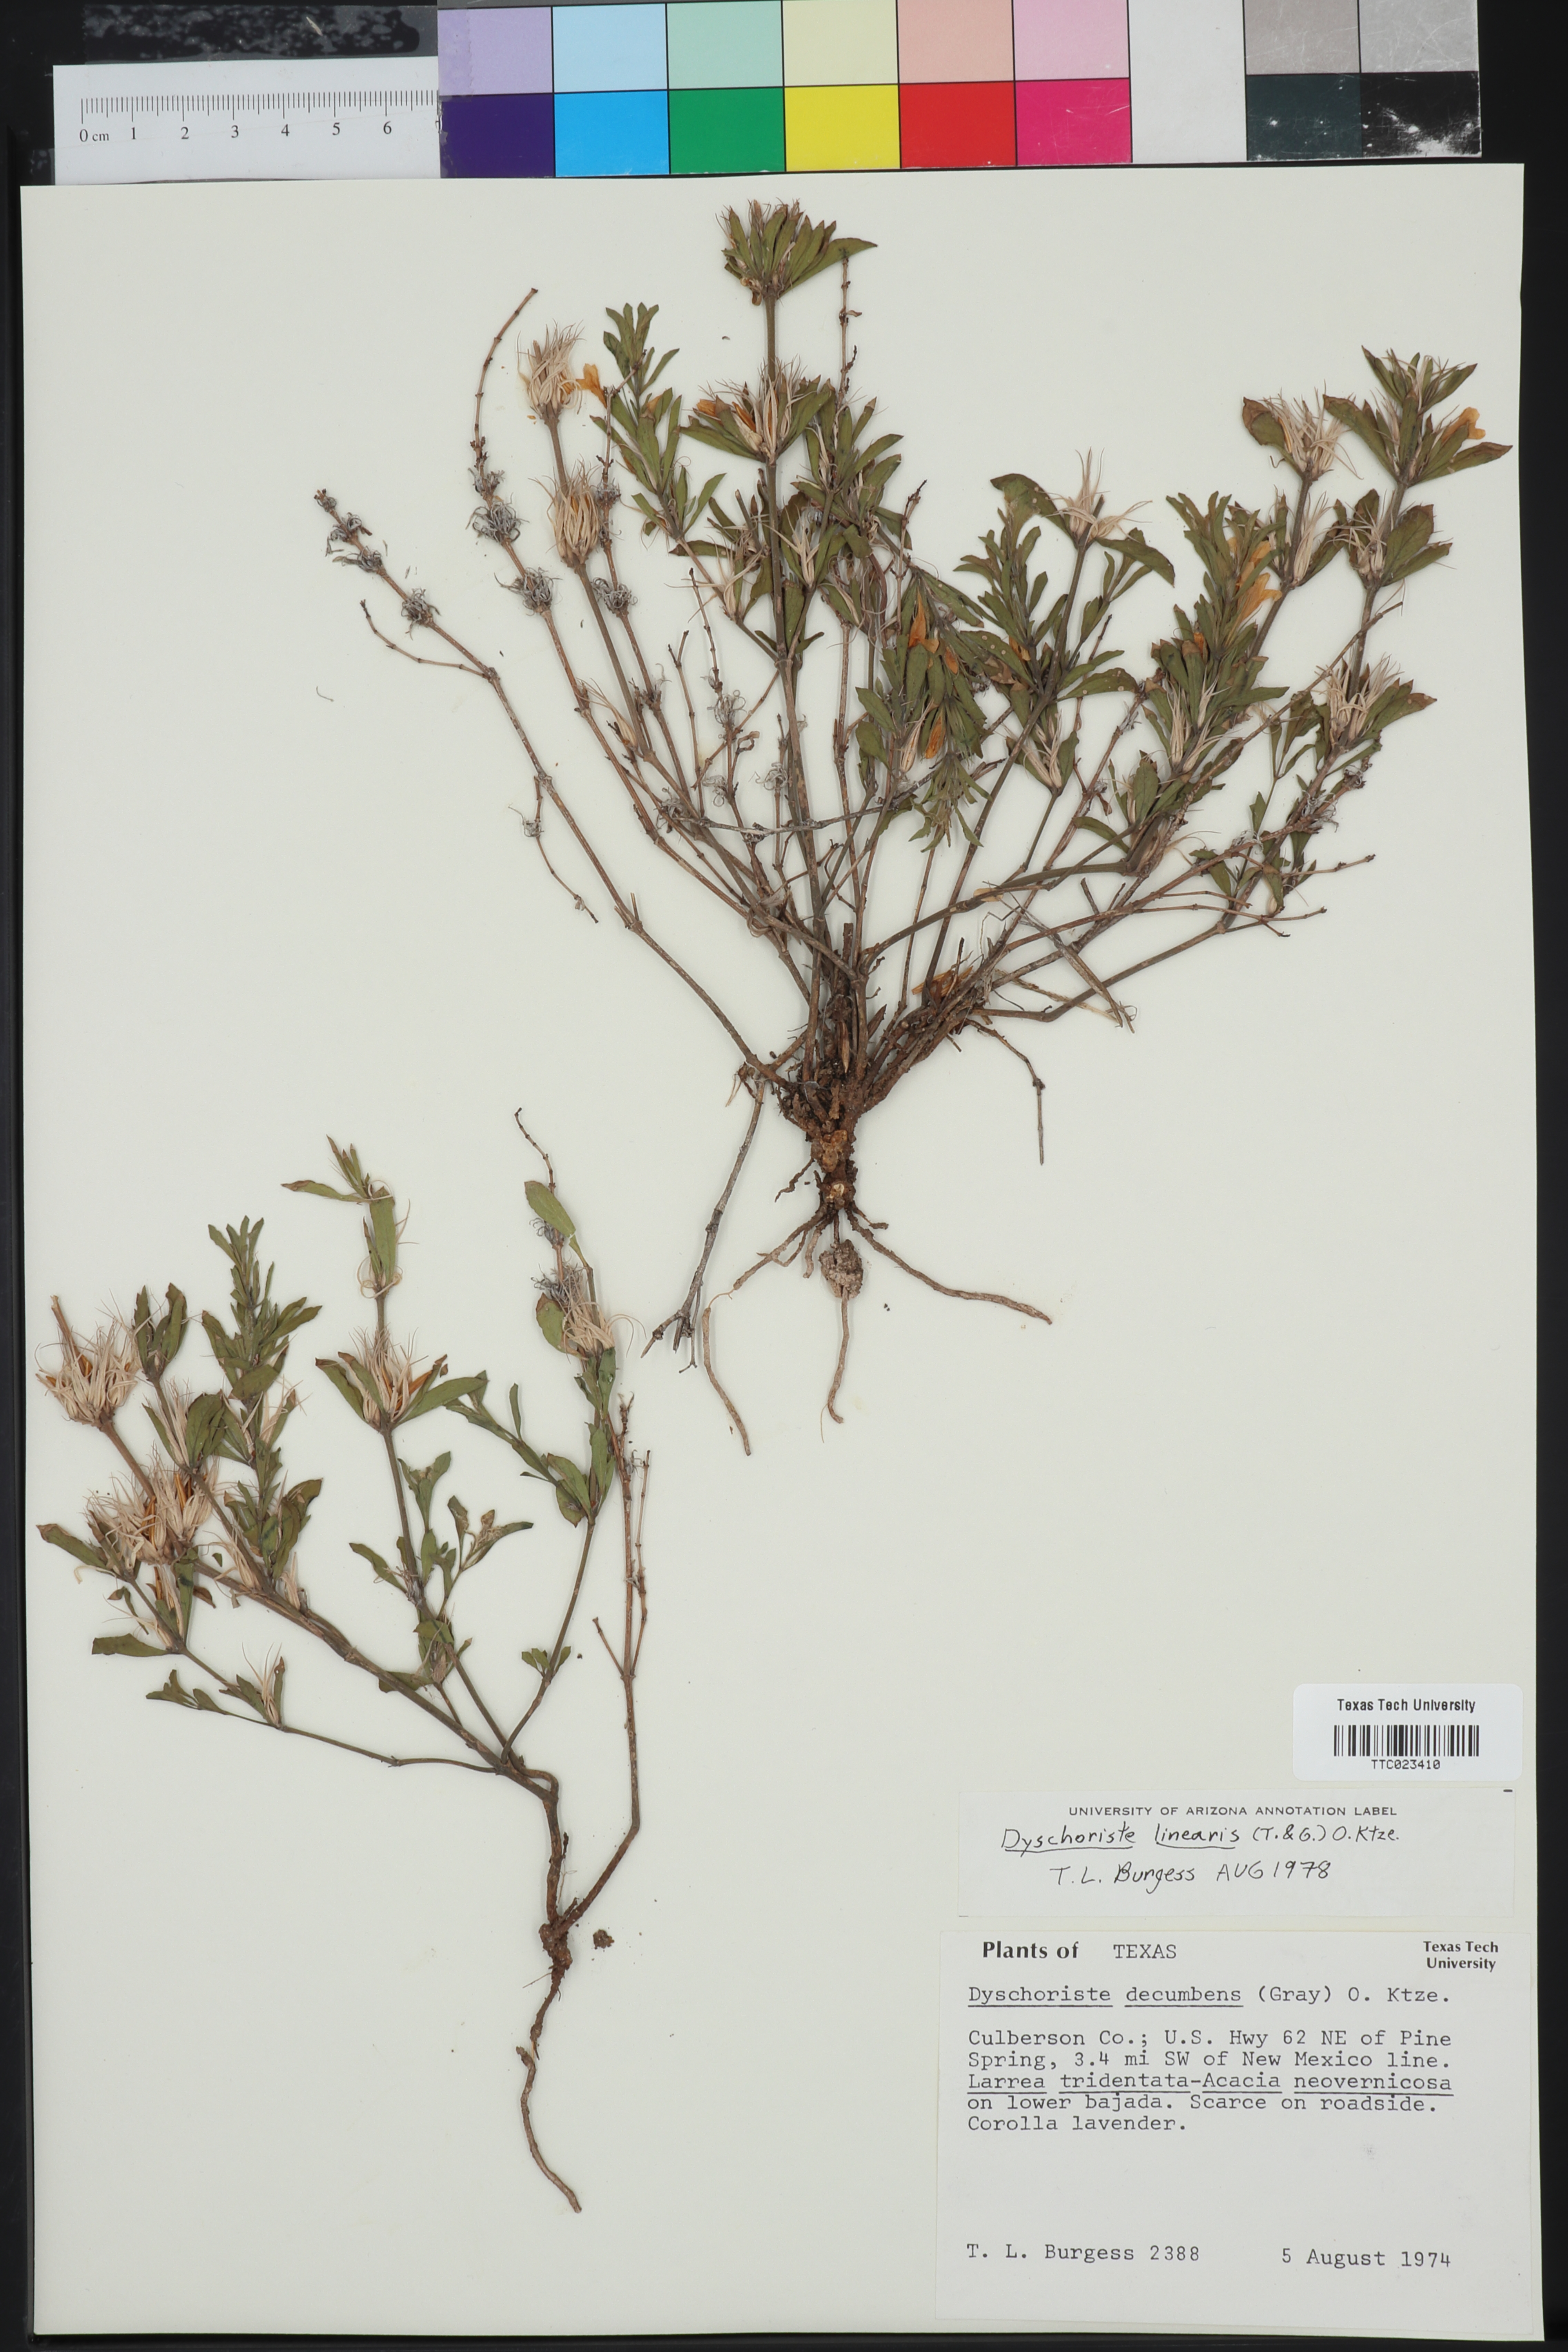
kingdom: Plantae
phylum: Tracheophyta
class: Magnoliopsida
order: Lamiales
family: Acanthaceae
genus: Dyschoriste
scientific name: Dyschoriste linearis
